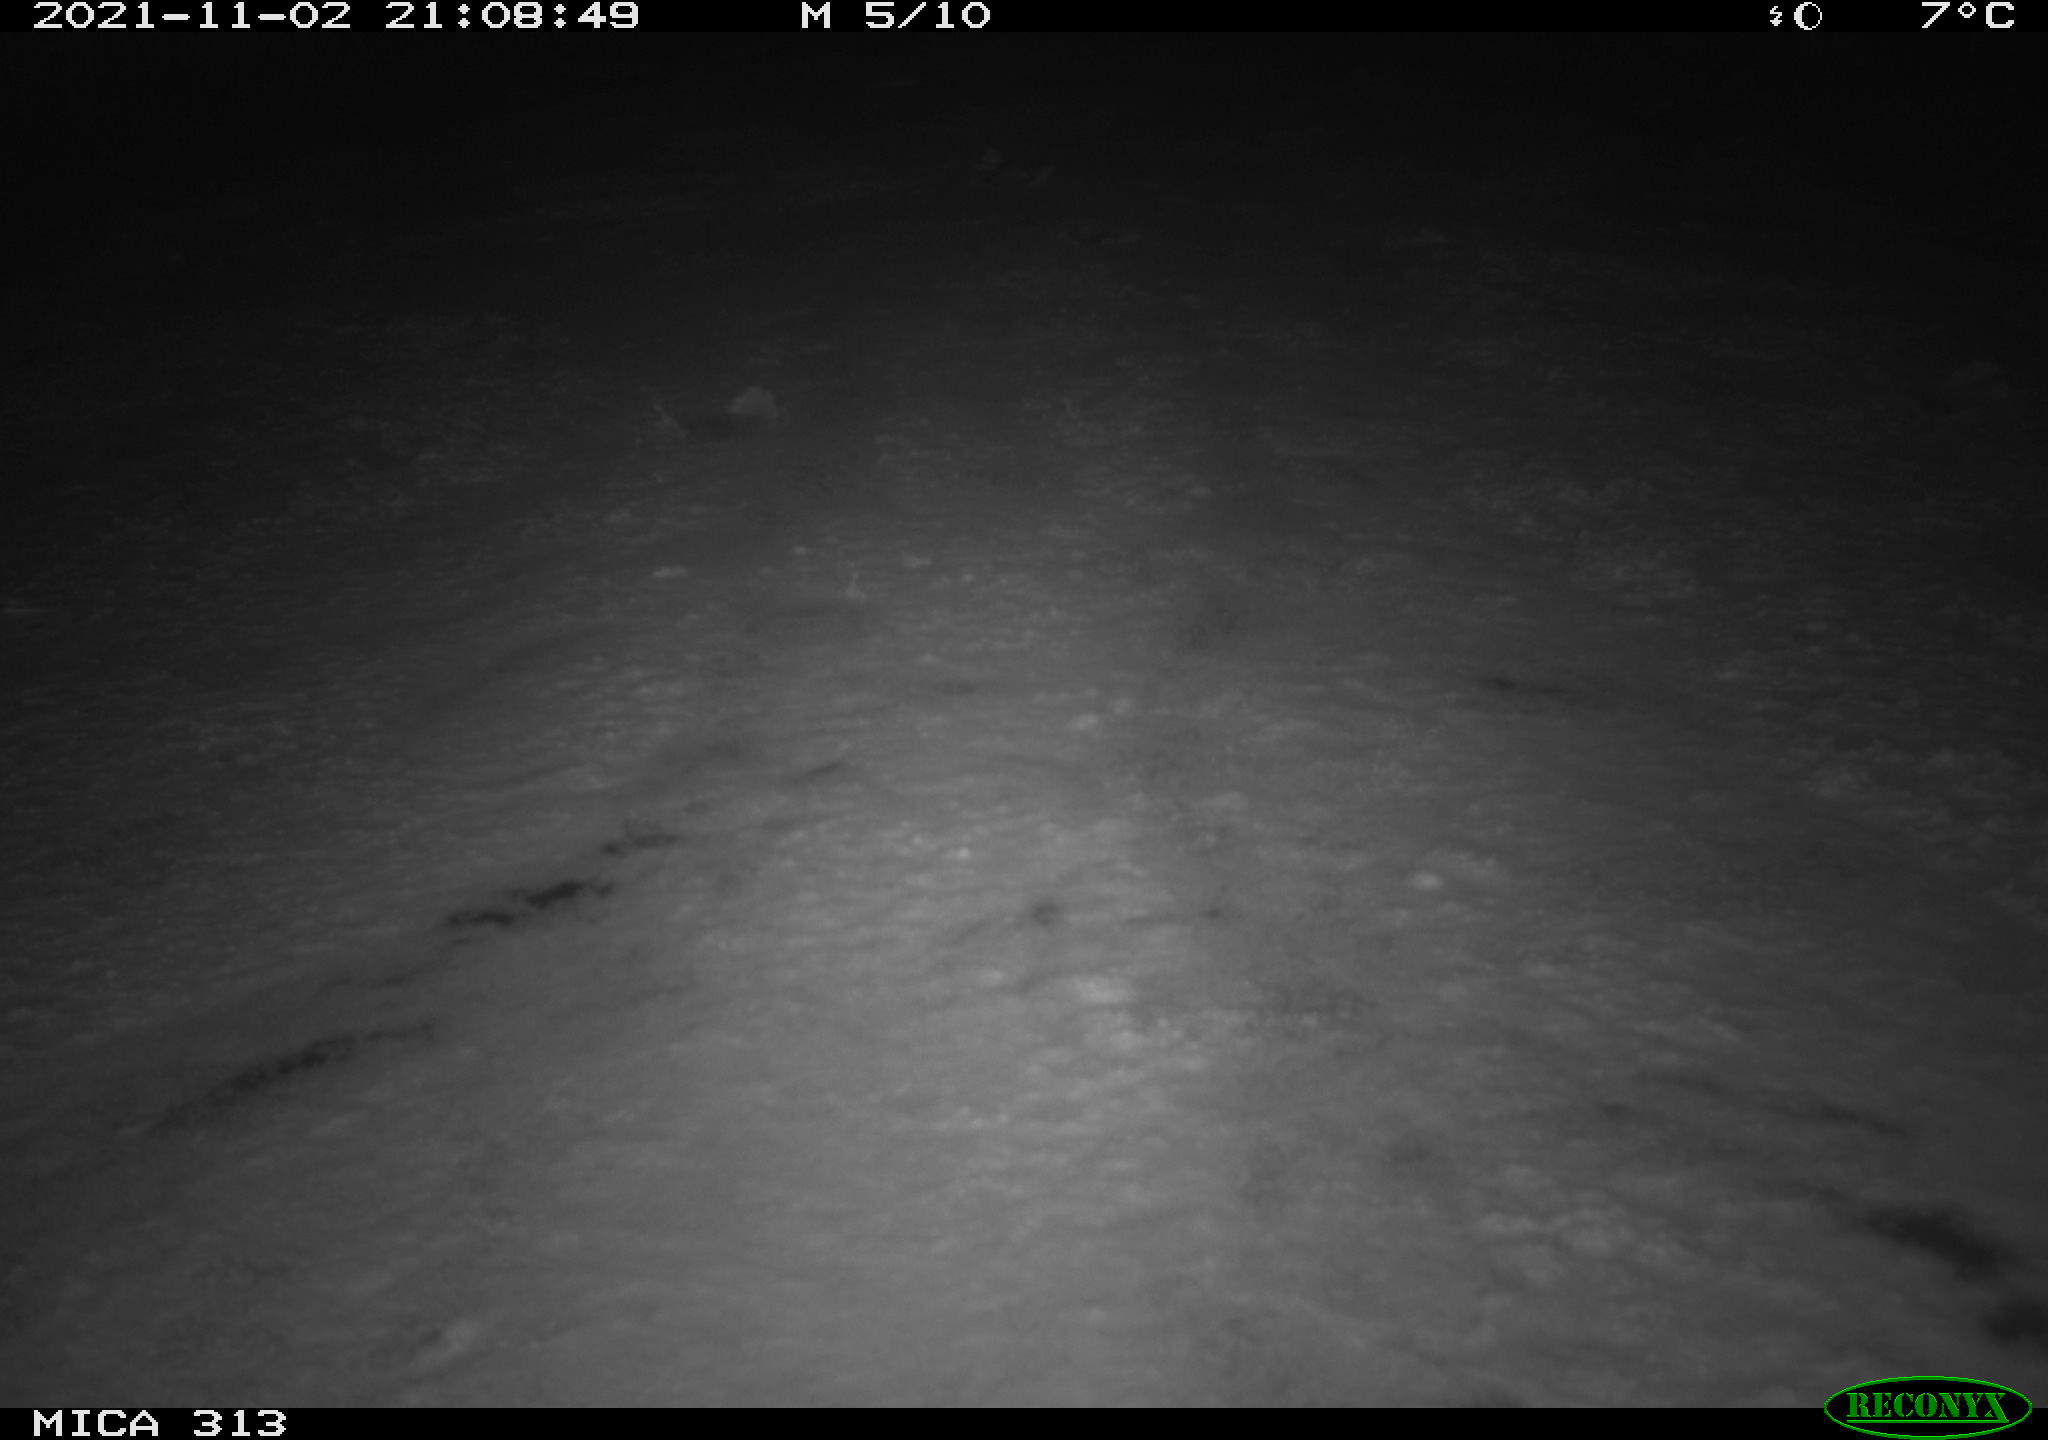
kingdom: Animalia
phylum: Chordata
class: Aves
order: Gruiformes
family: Rallidae
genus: Gallinula
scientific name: Gallinula chloropus
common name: Common moorhen
